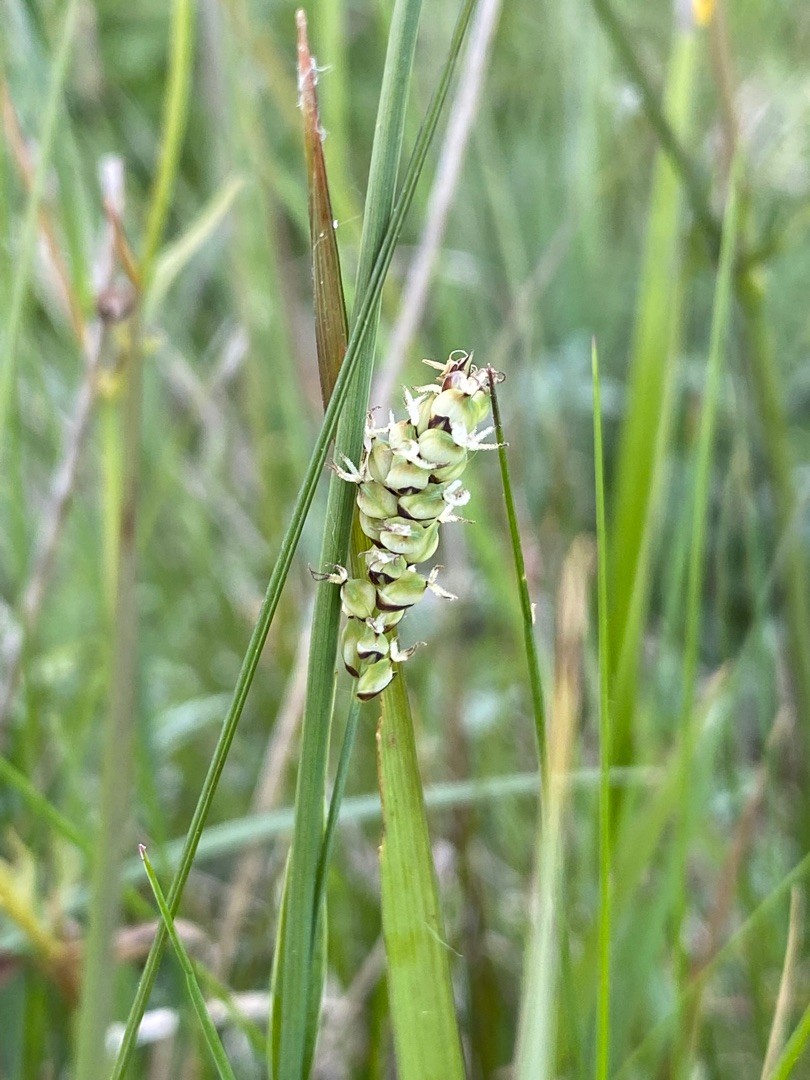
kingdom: Plantae
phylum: Tracheophyta
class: Liliopsida
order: Poales
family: Cyperaceae
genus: Carex
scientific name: Carex panicea
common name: Hirse-star
